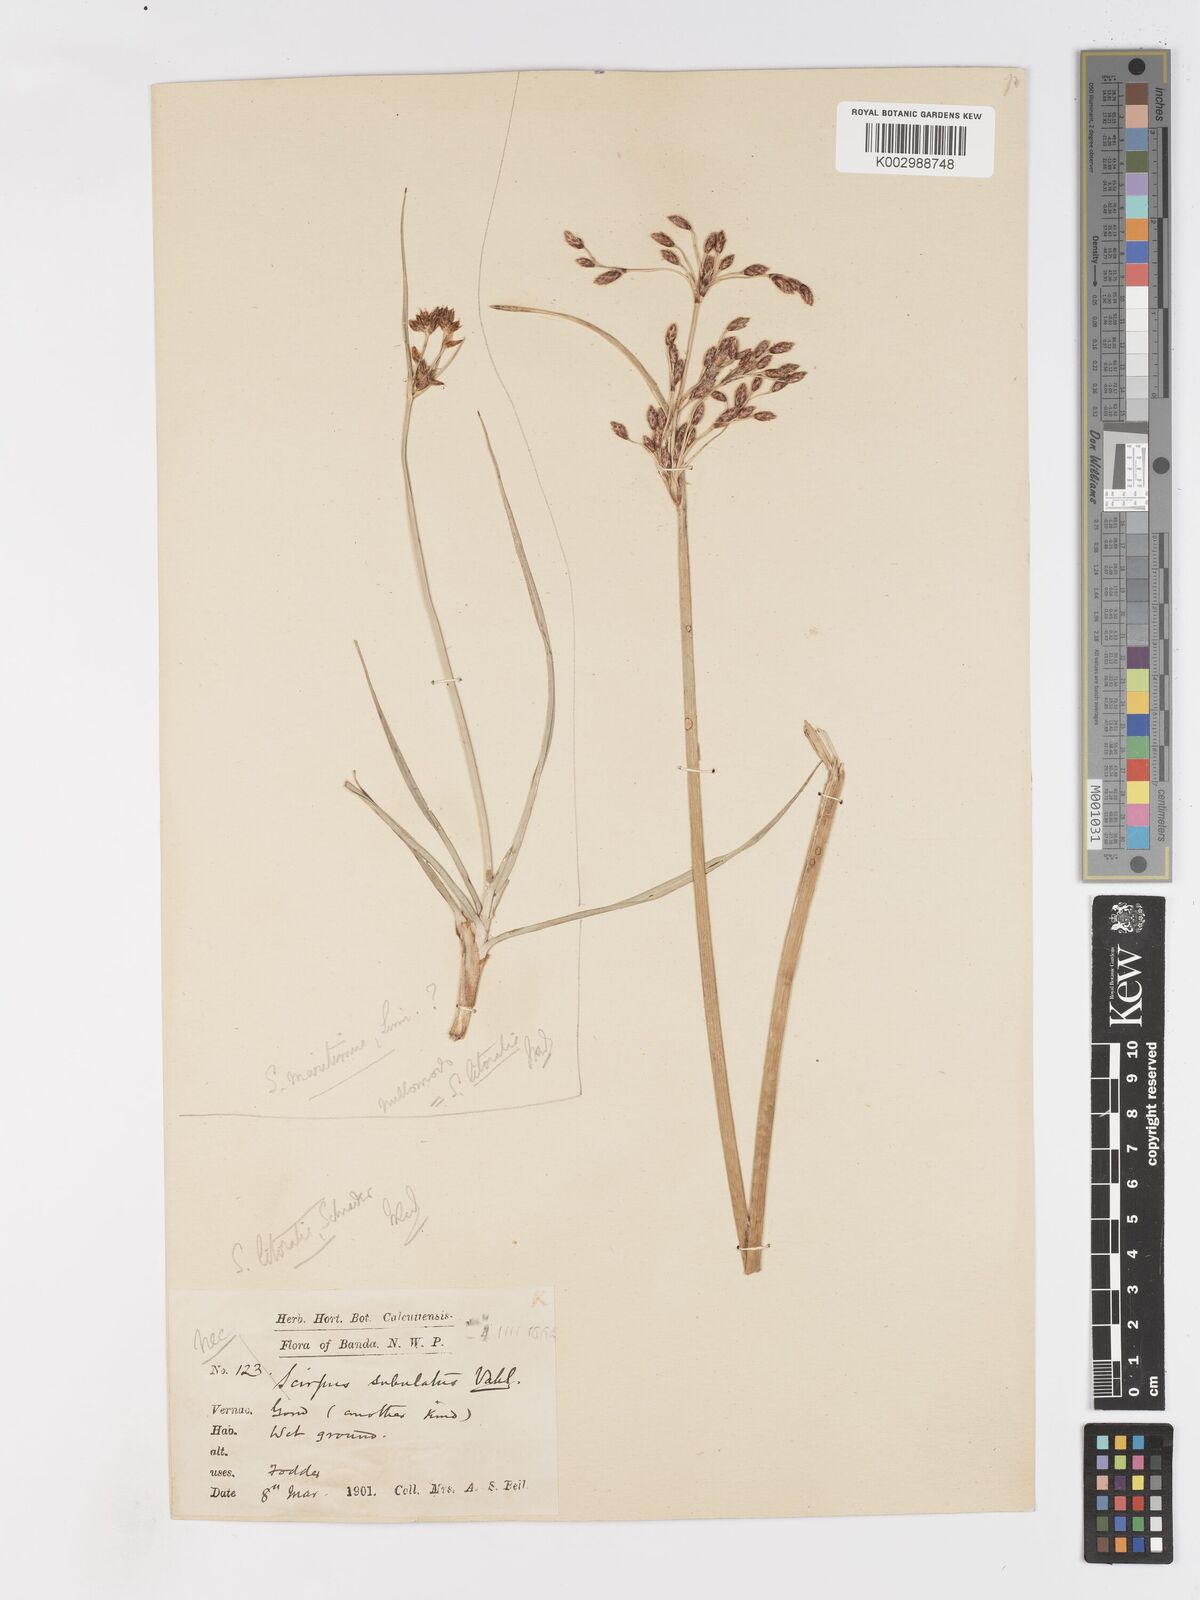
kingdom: Plantae
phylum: Tracheophyta
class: Liliopsida
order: Poales
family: Cyperaceae
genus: Schoenoplectus
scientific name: Schoenoplectus litoralis
